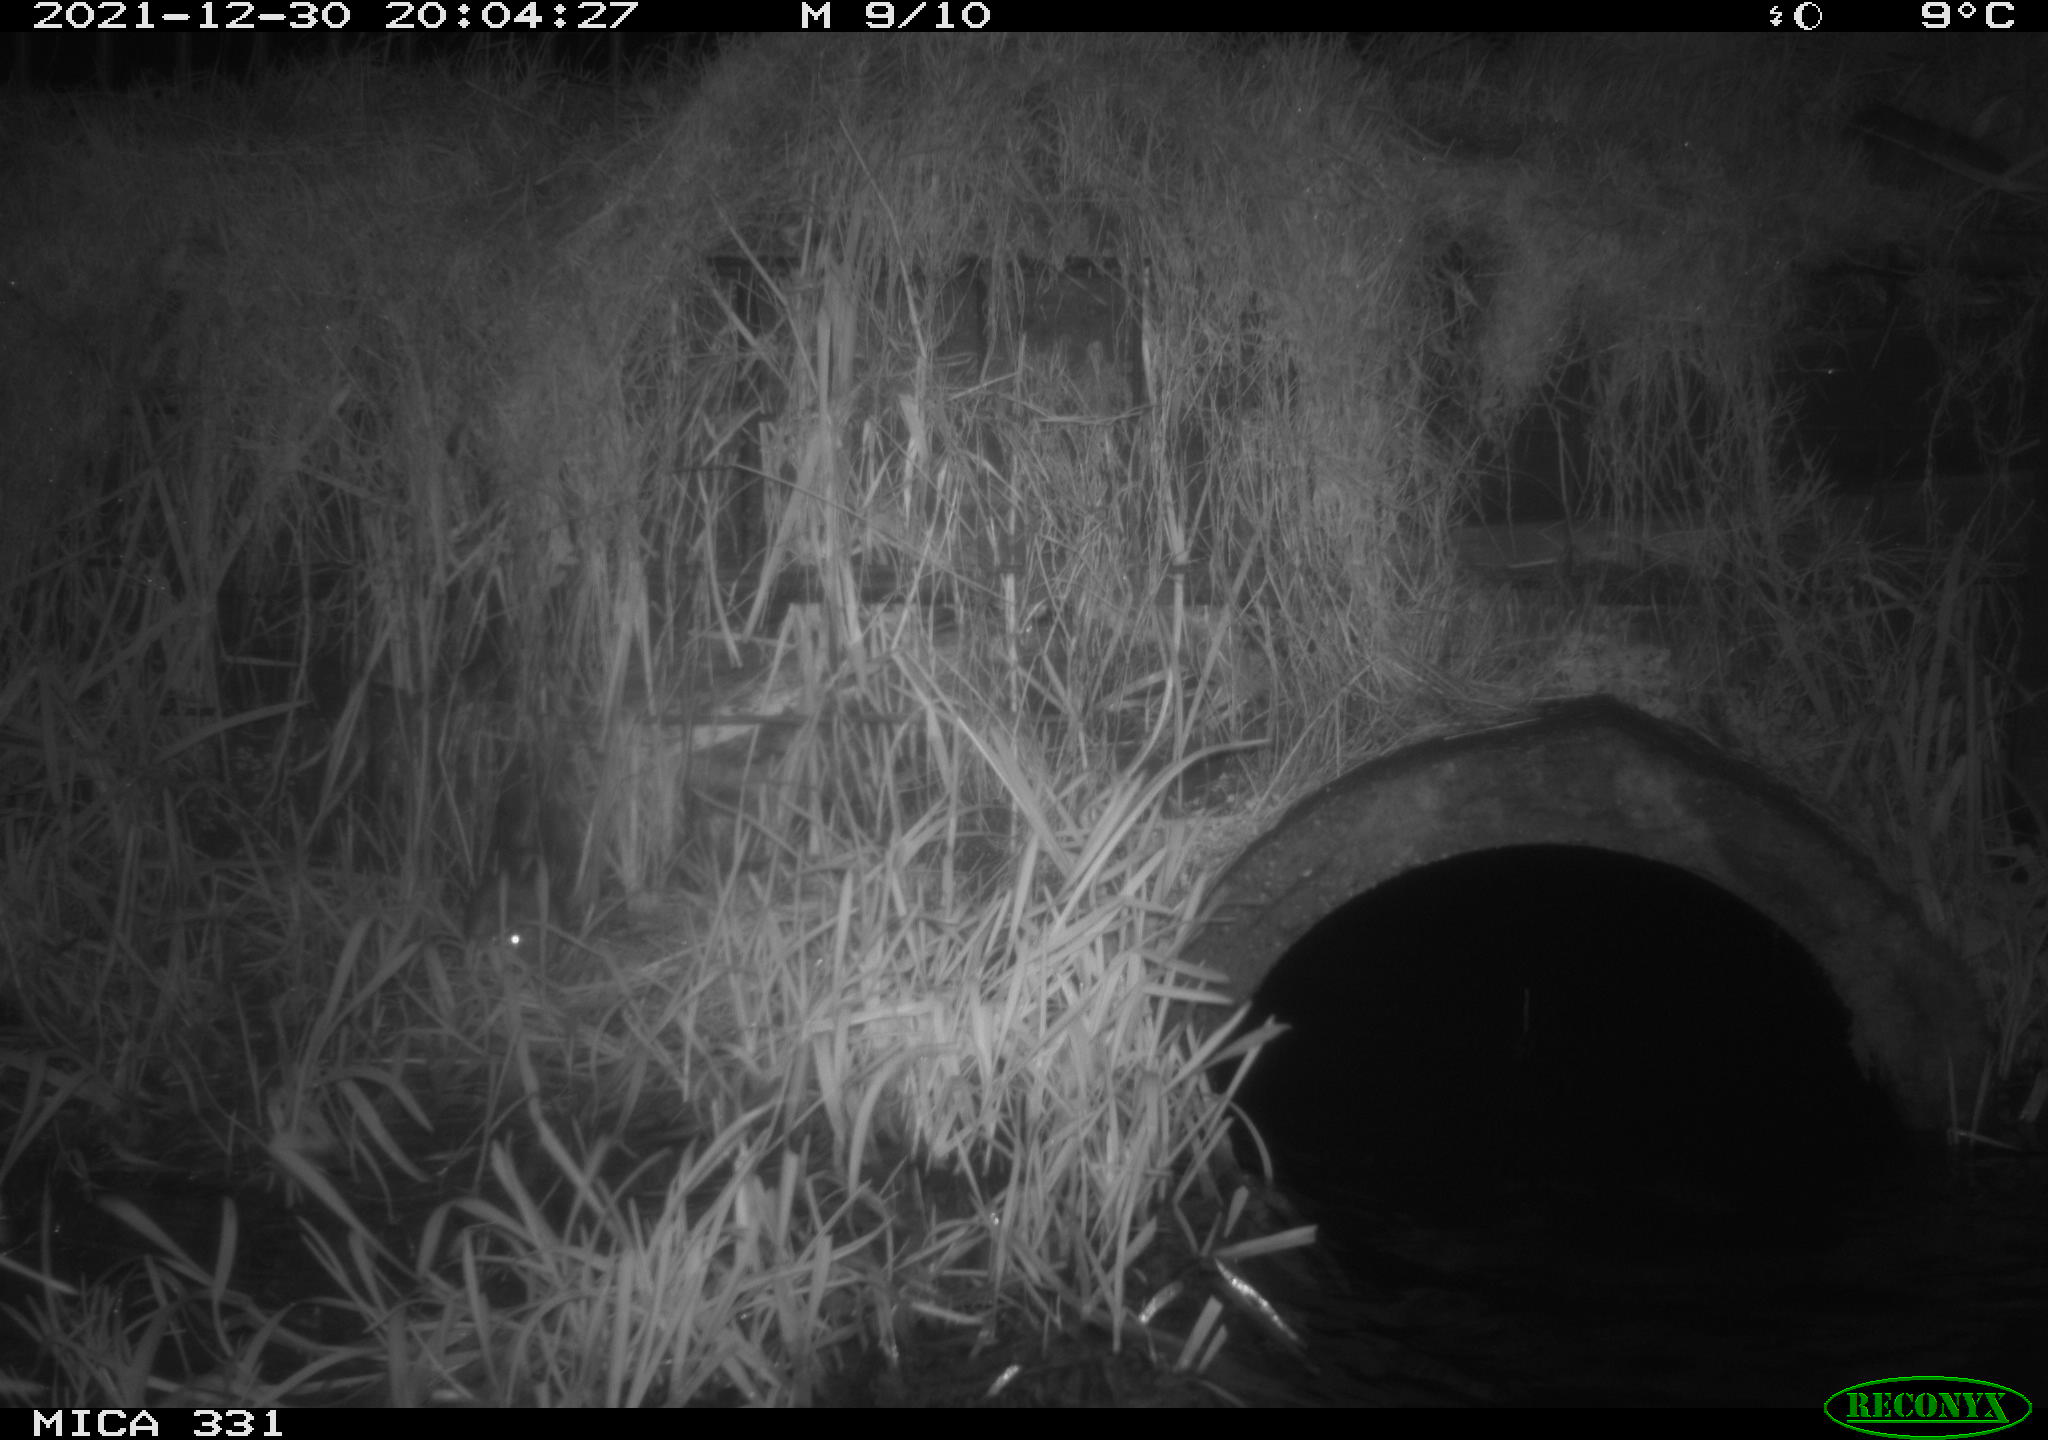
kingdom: Animalia
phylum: Chordata
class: Mammalia
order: Rodentia
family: Muridae
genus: Rattus
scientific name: Rattus norvegicus
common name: Brown rat
